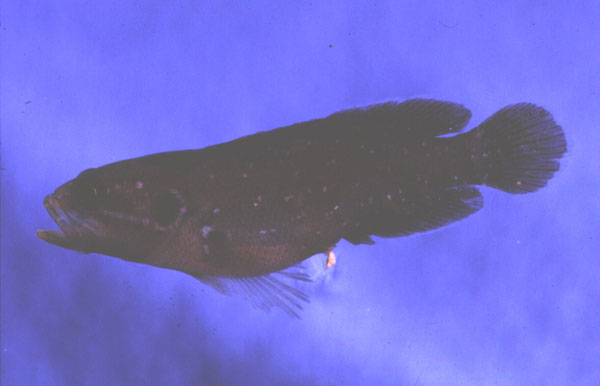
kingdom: Animalia
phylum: Chordata
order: Perciformes
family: Serranidae
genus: Grammistops
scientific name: Grammistops ocellatus
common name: Ocellate soapfish
